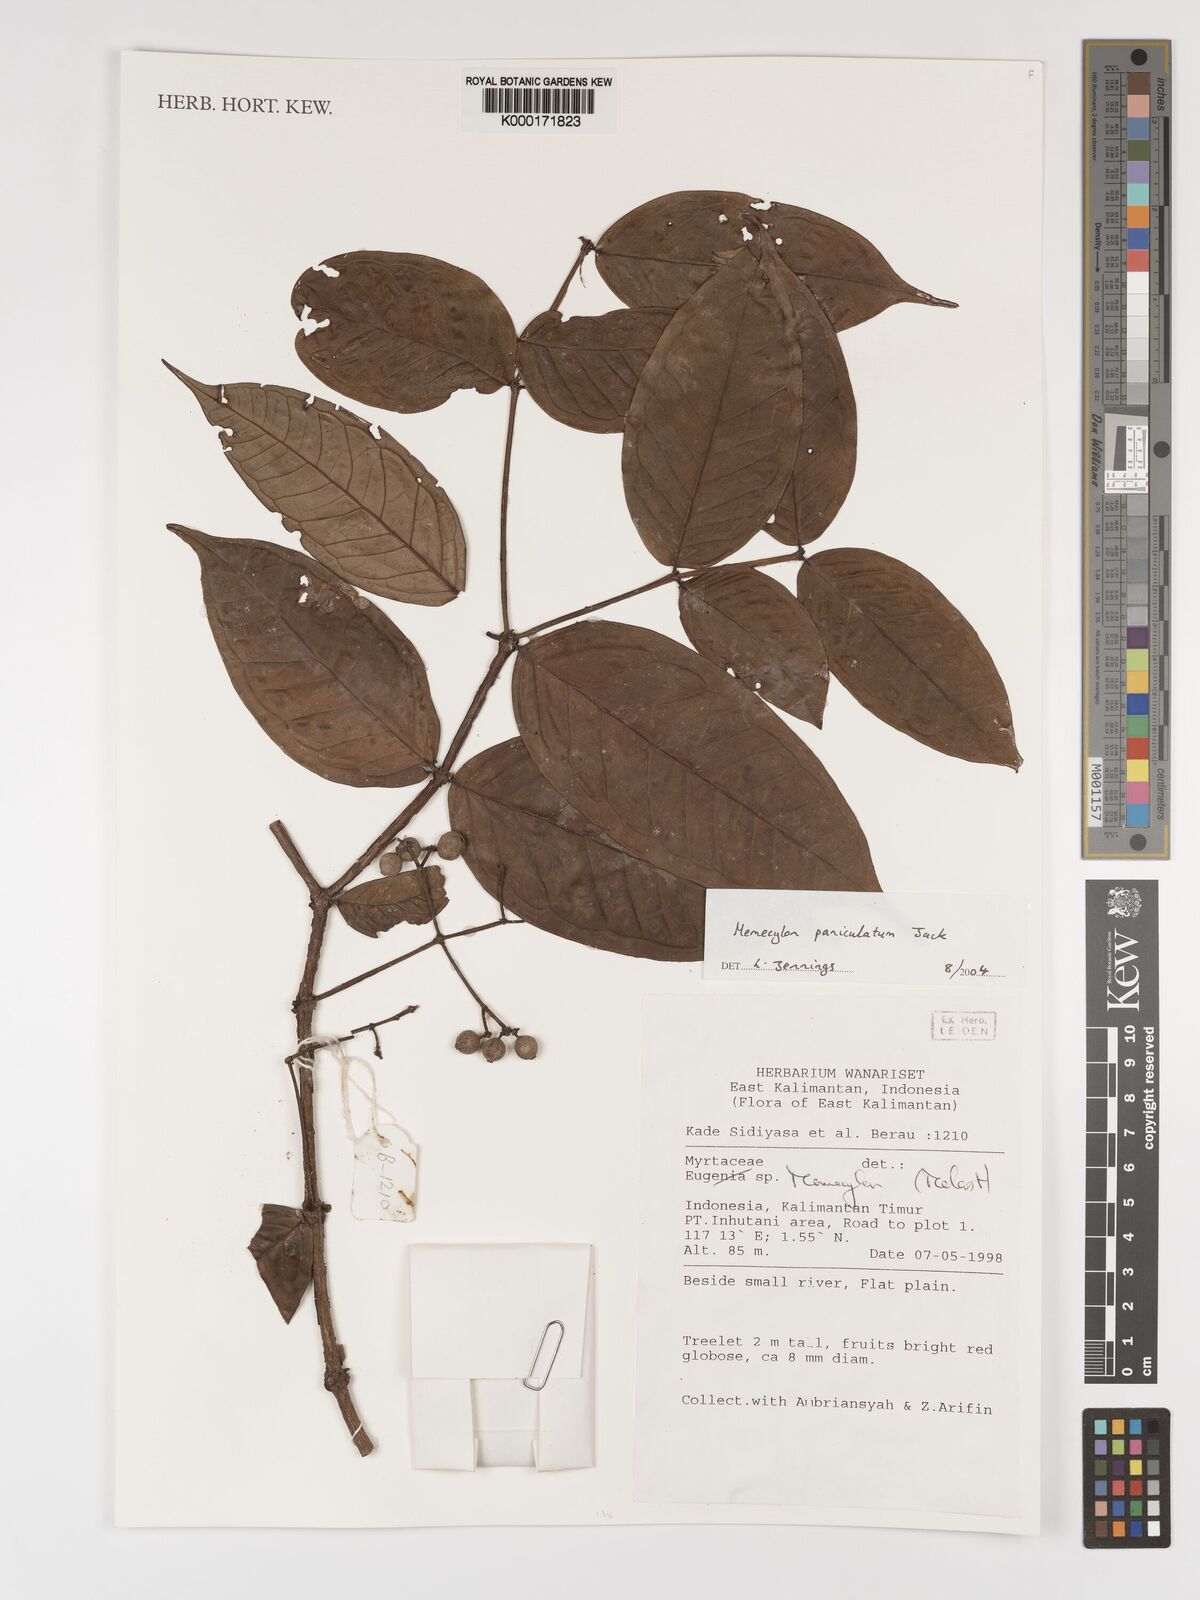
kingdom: Plantae
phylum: Tracheophyta
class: Magnoliopsida
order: Myrtales
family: Melastomataceae
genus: Memecylon
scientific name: Memecylon paniculatum
